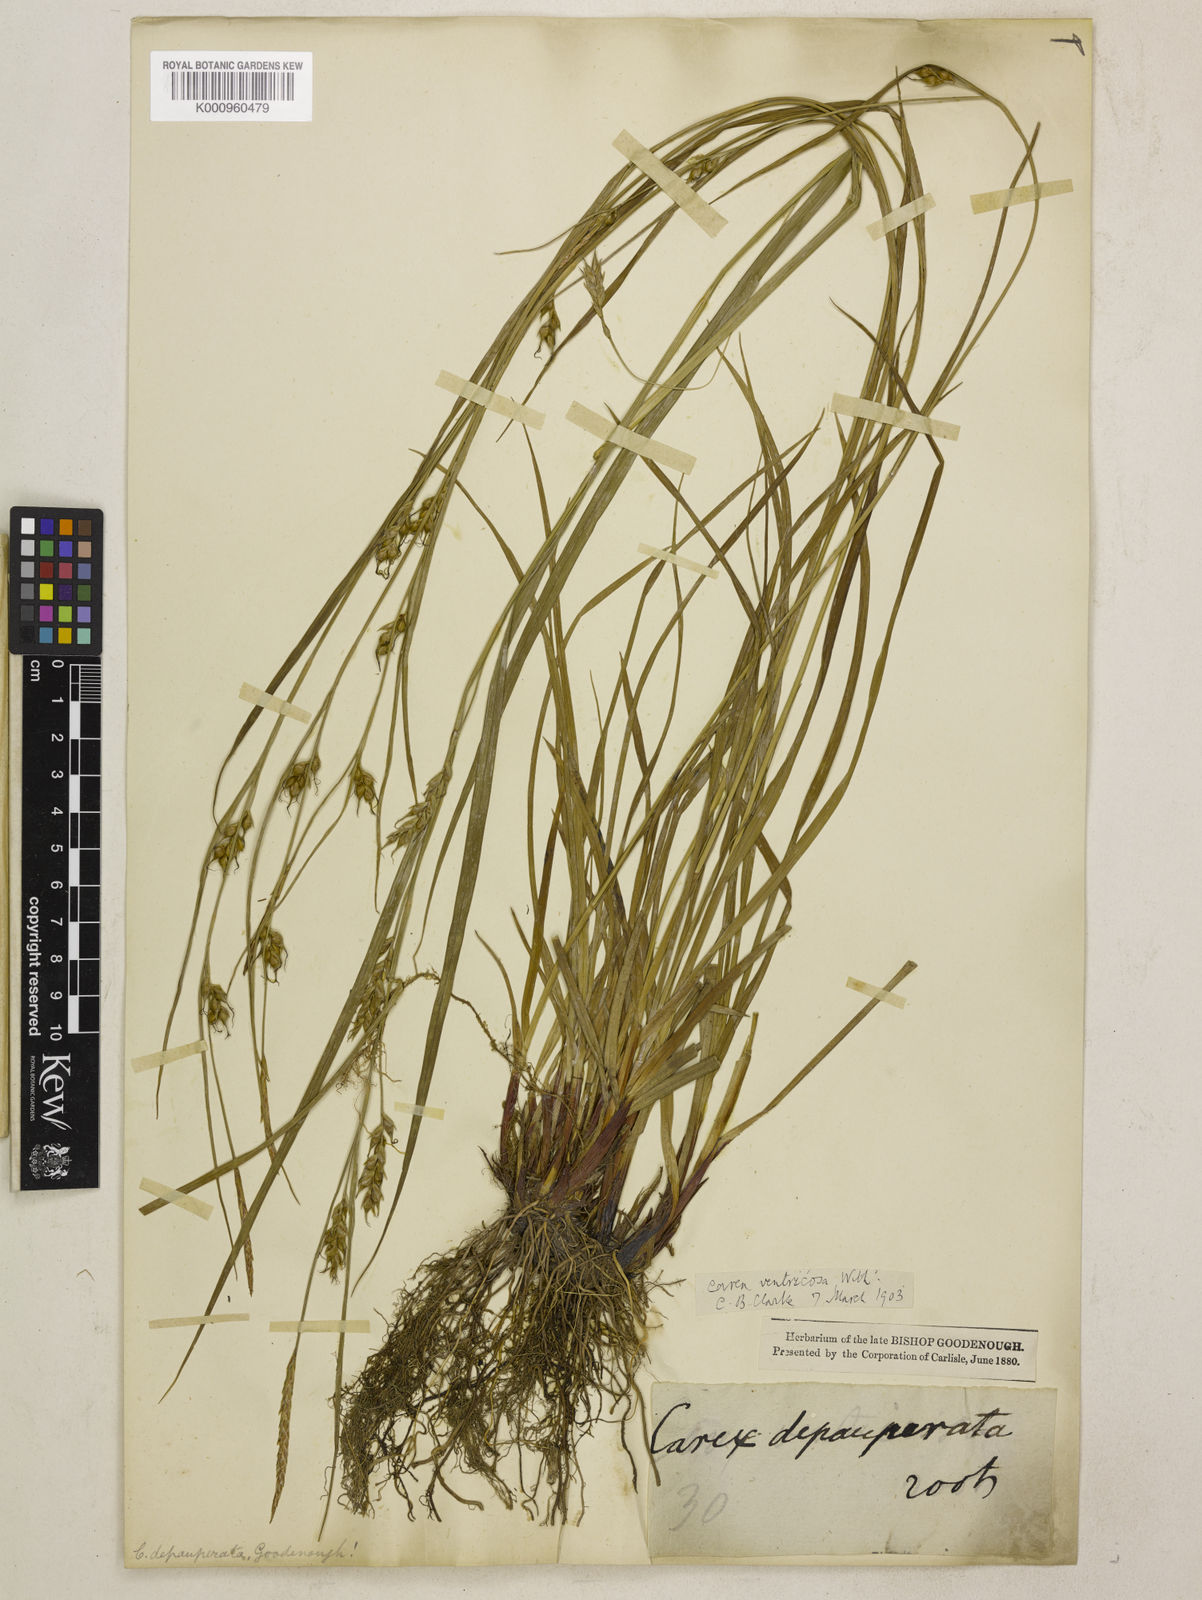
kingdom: Plantae
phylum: Tracheophyta
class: Liliopsida
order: Poales
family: Cyperaceae
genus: Carex
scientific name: Carex
